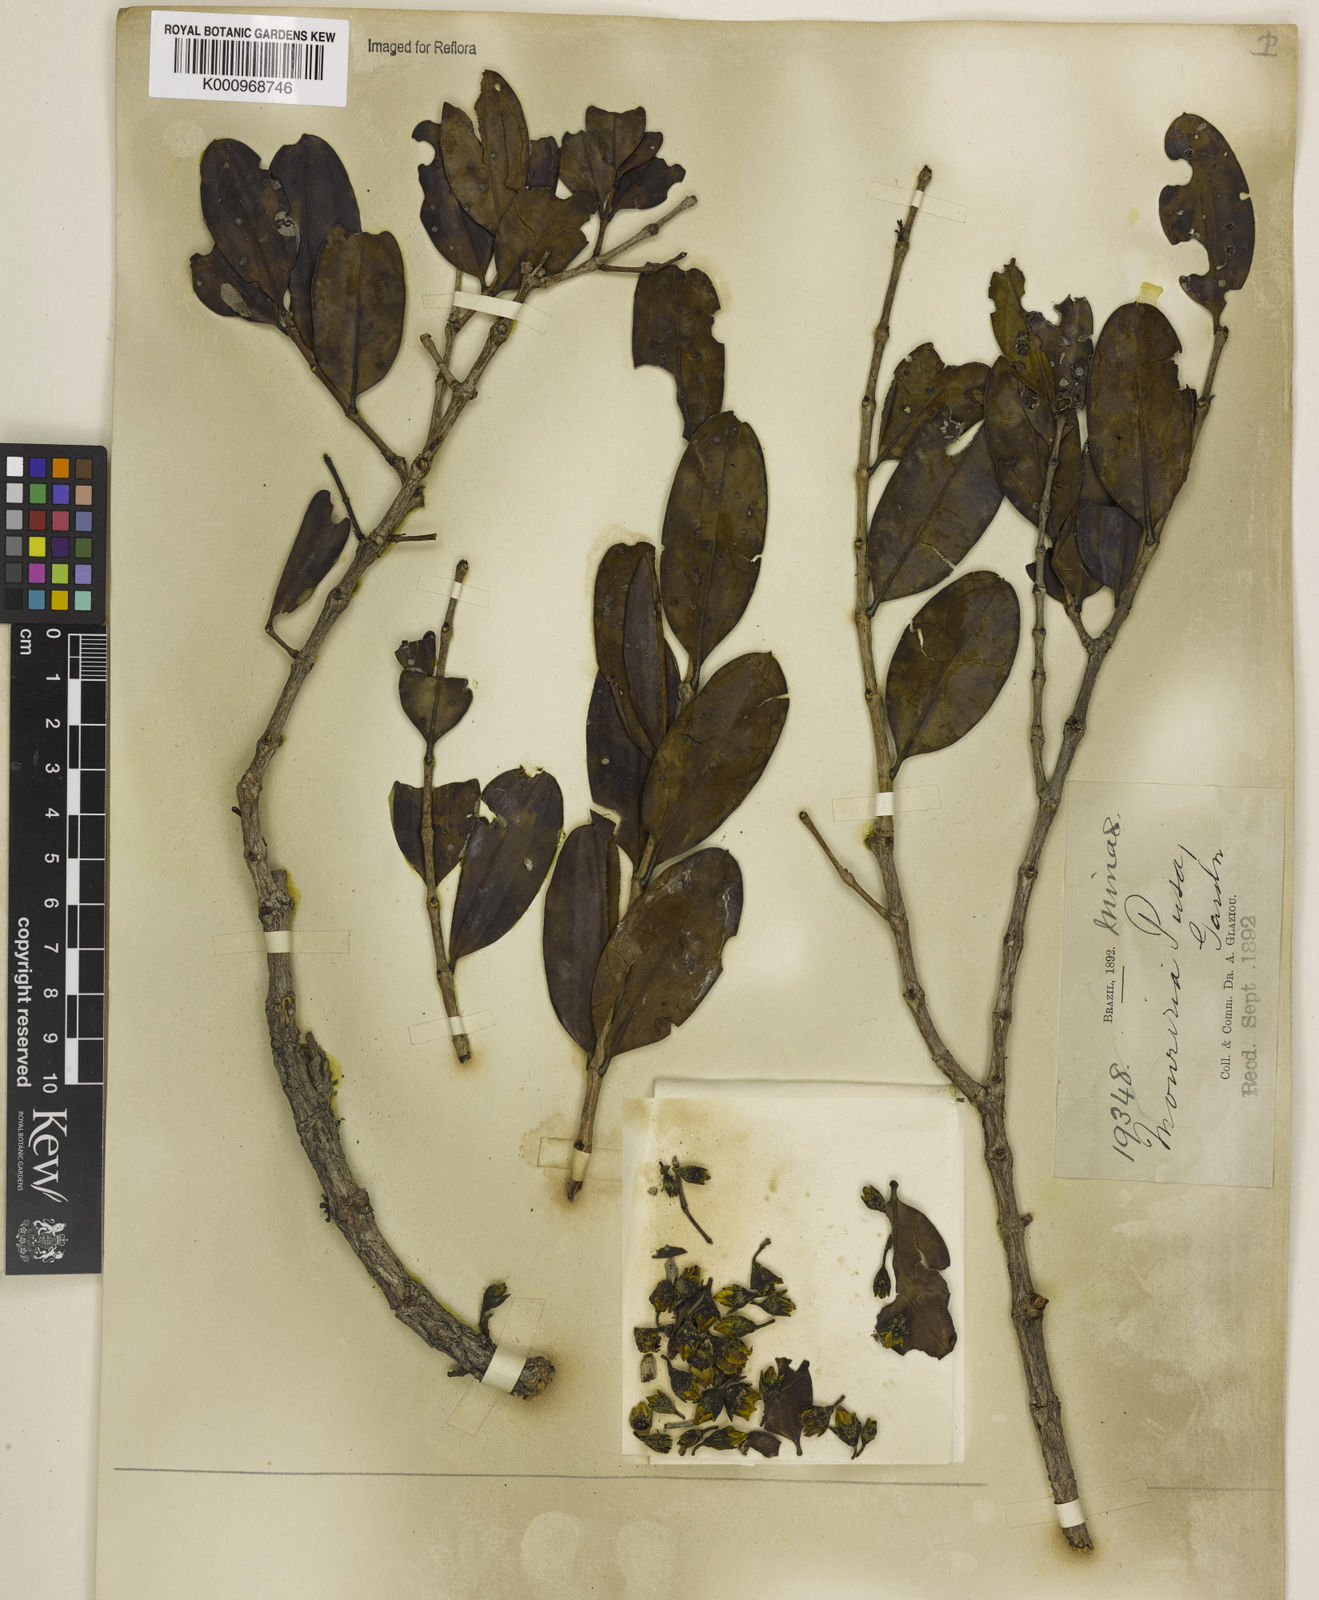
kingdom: Plantae
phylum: Tracheophyta
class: Magnoliopsida
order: Myrtales
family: Melastomataceae
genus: Mouriri
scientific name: Mouriri pusa
